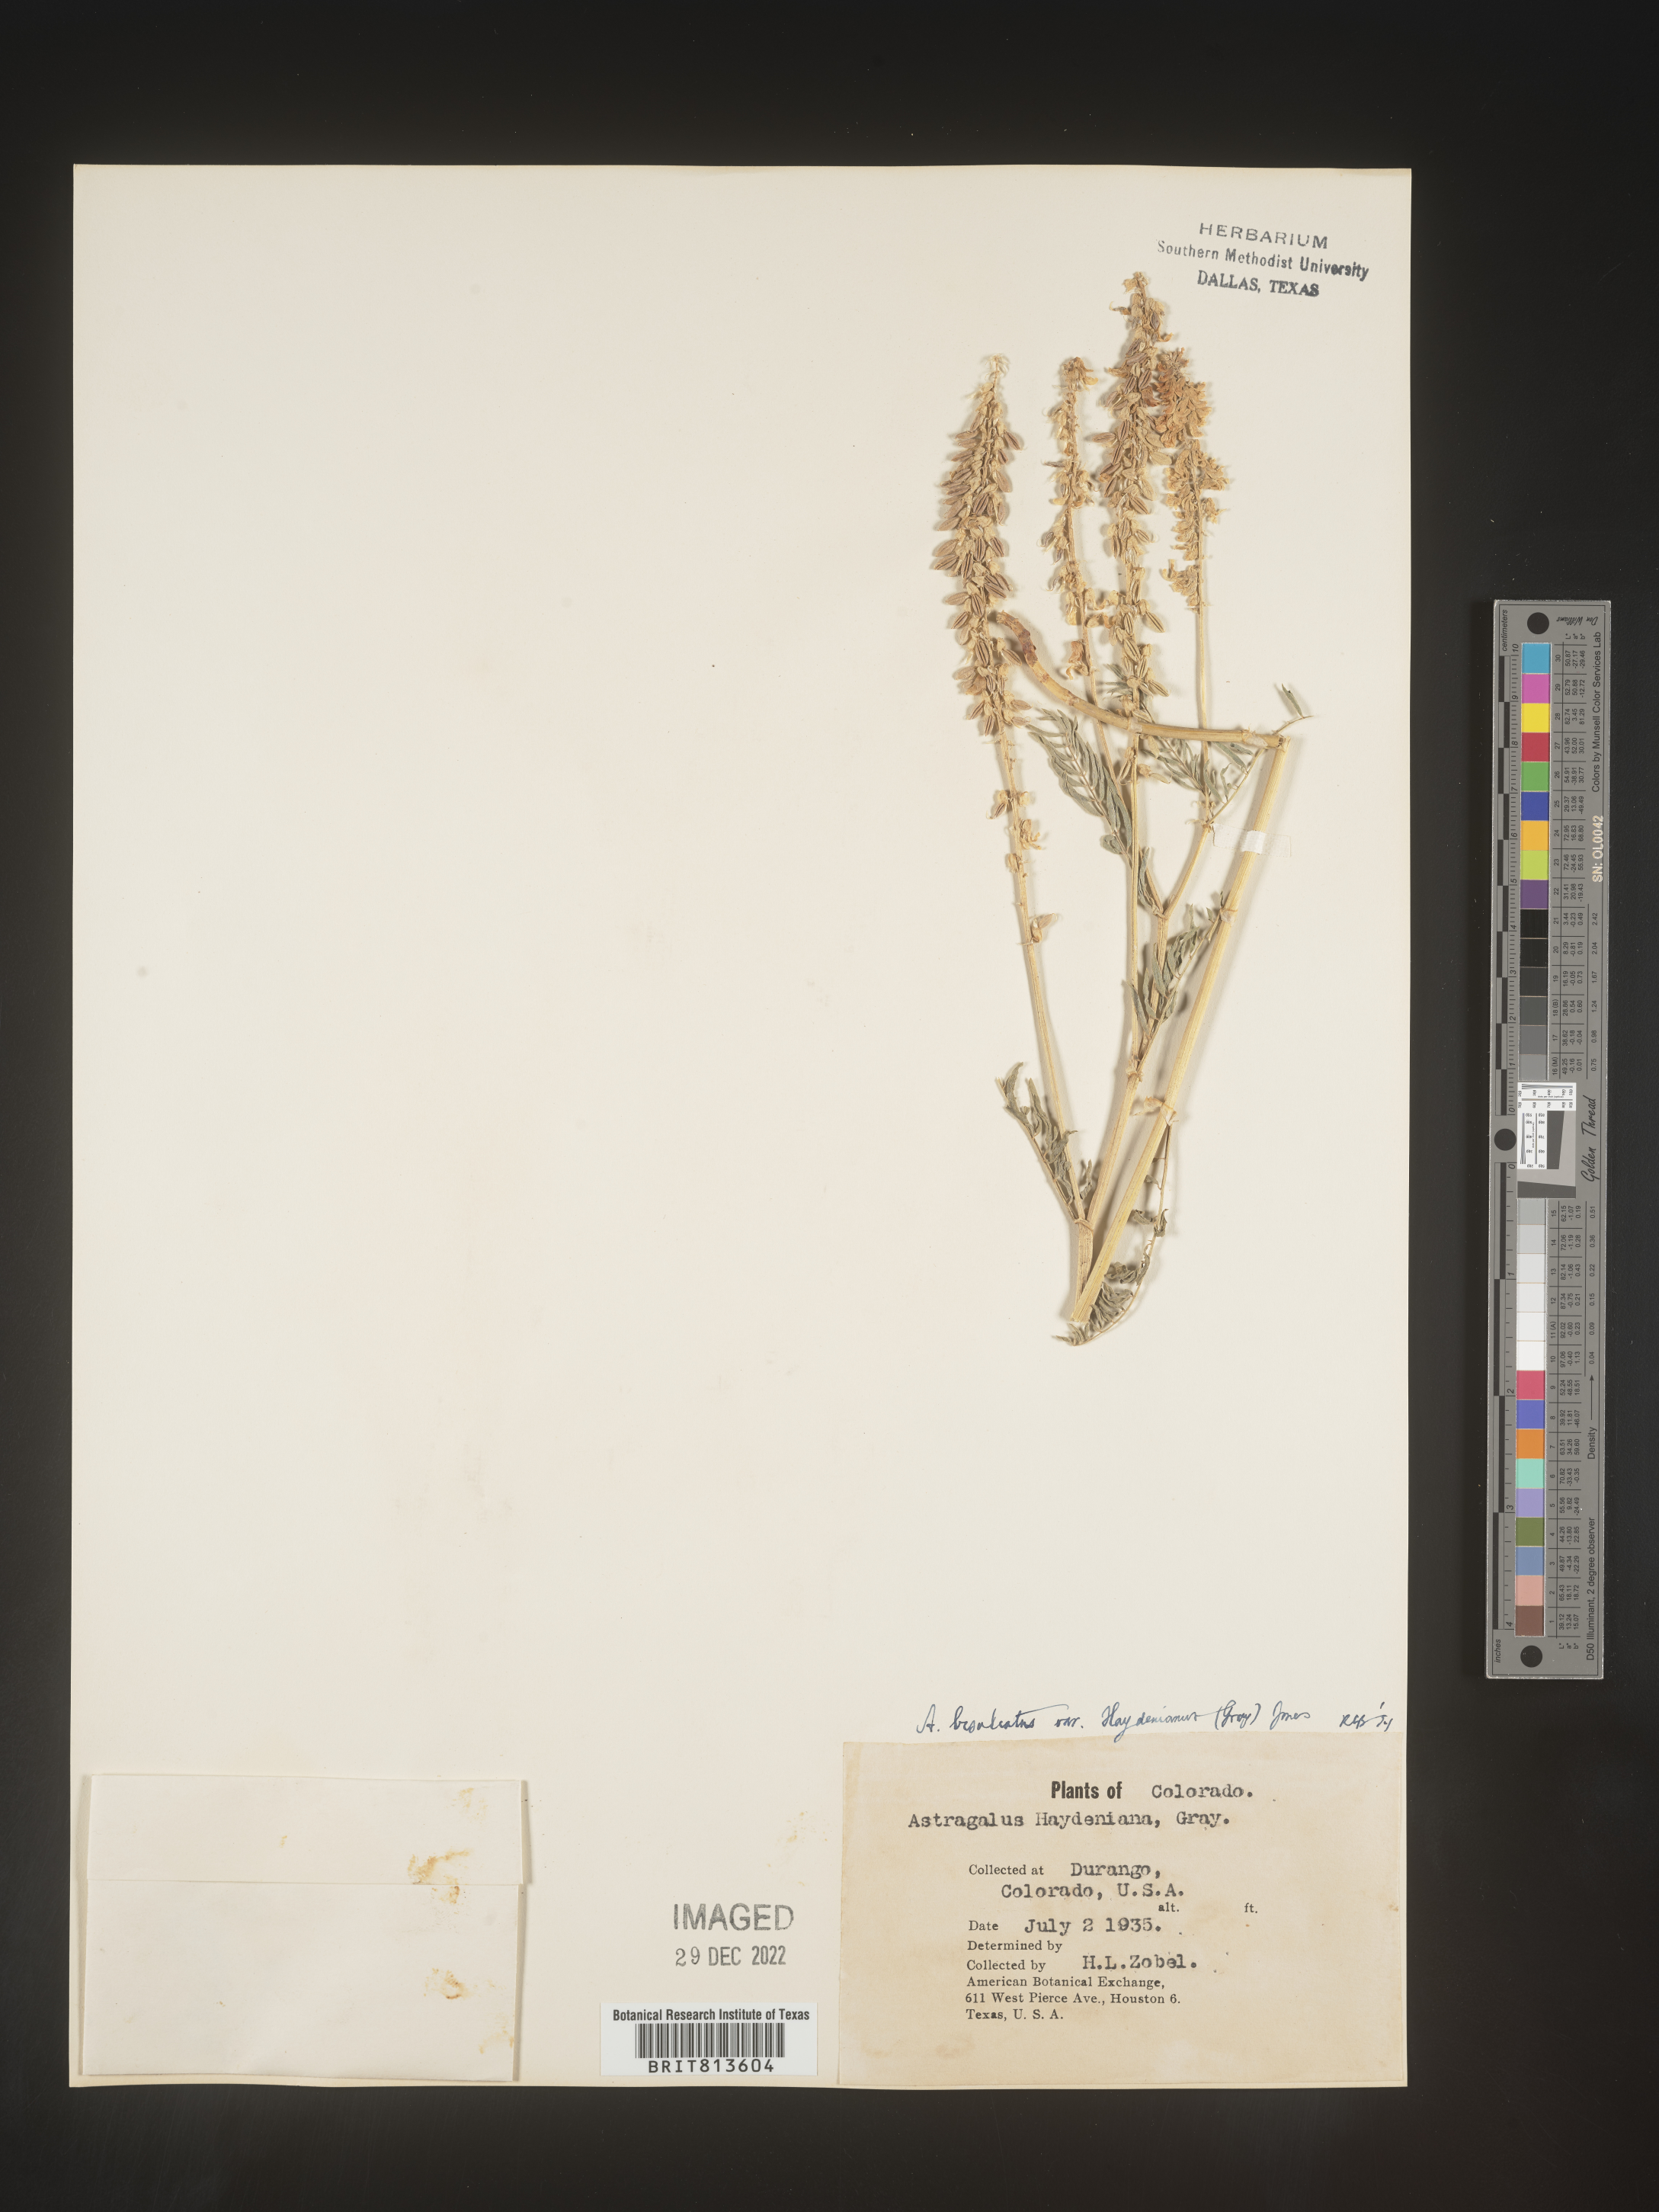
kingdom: Plantae
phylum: Tracheophyta
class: Magnoliopsida
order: Fabales
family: Fabaceae
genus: Astragalus
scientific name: Astragalus bisulcatus
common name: Two-groove milk-vetch
